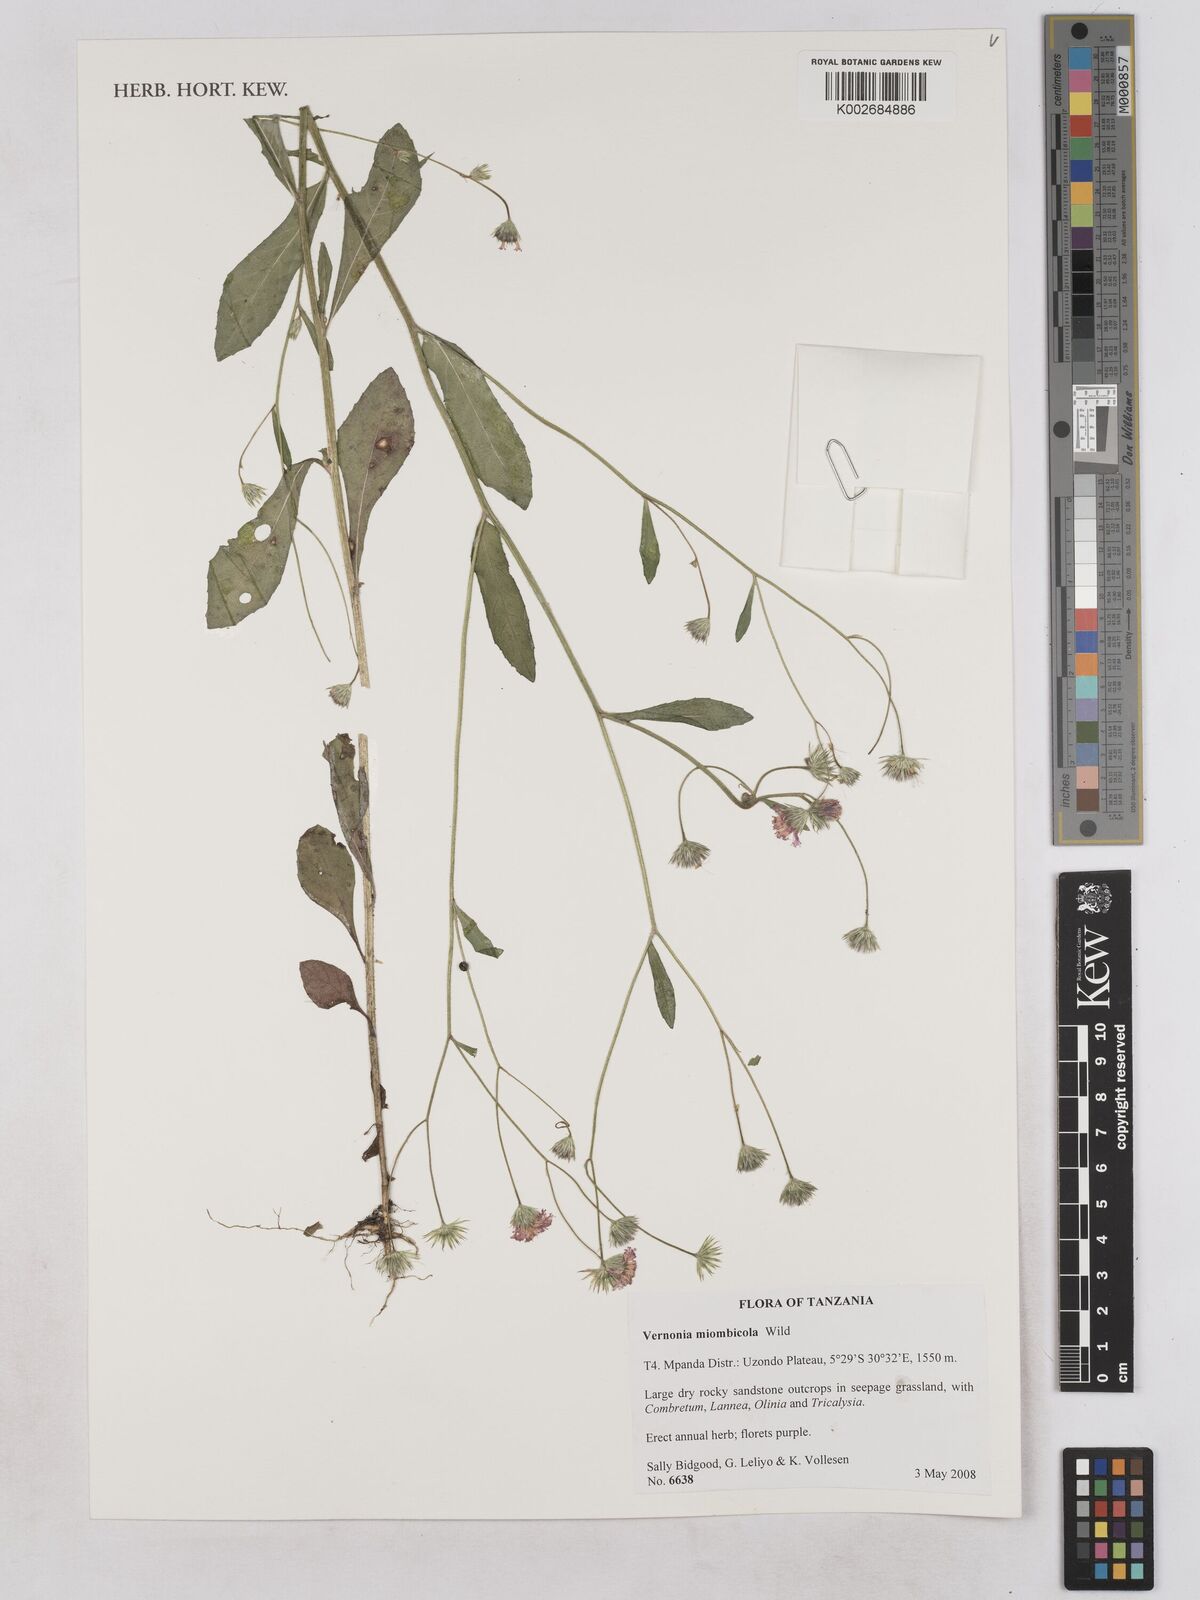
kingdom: Plantae
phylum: Tracheophyta
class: Magnoliopsida
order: Asterales
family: Asteraceae
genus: Vernonia
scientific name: Vernonia miombicola
